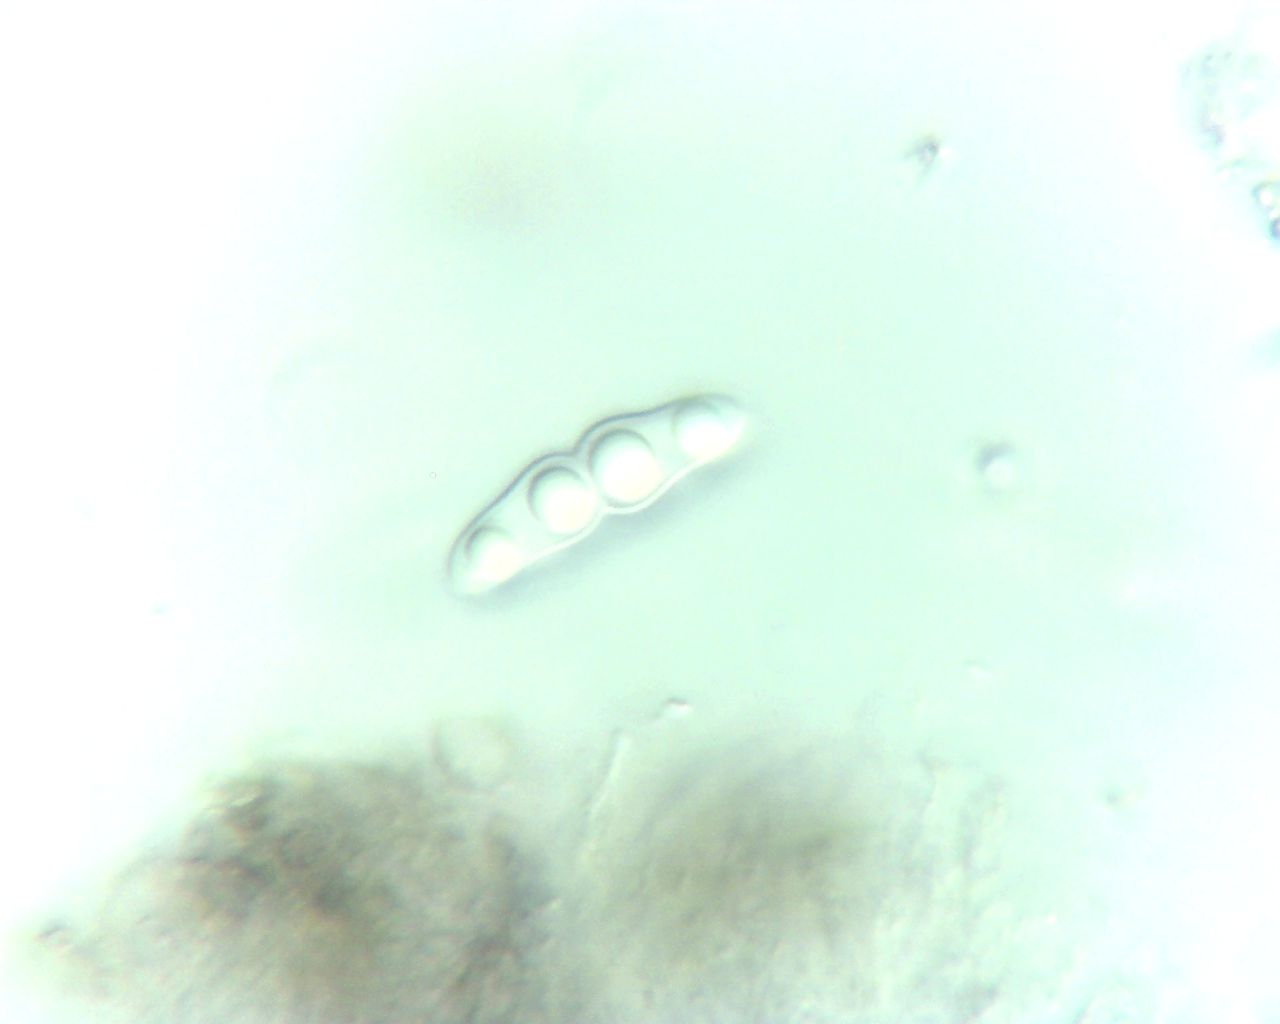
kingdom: Plantae
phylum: Bryophyta
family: Dothideomycetes
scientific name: Dothideomycetes
